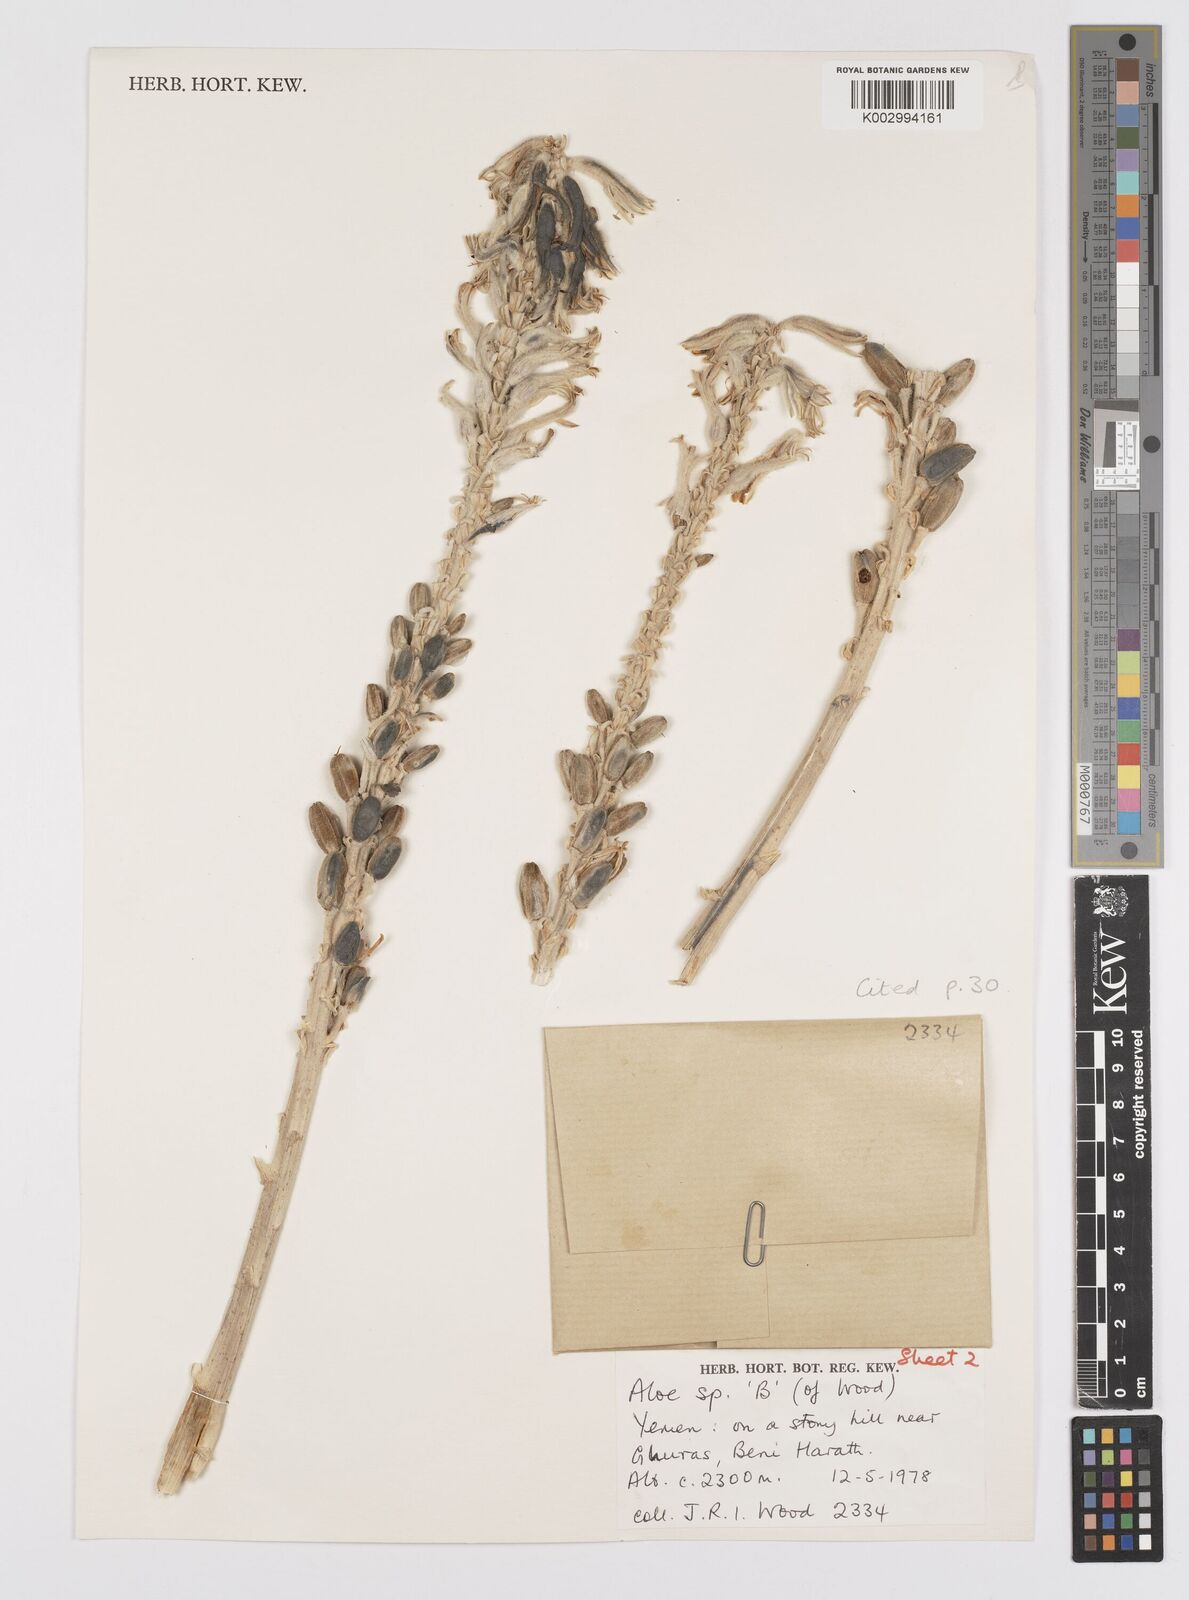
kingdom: Plantae
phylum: Tracheophyta
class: Liliopsida
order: Asparagales
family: Asphodelaceae
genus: Aloe
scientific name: Aloe
